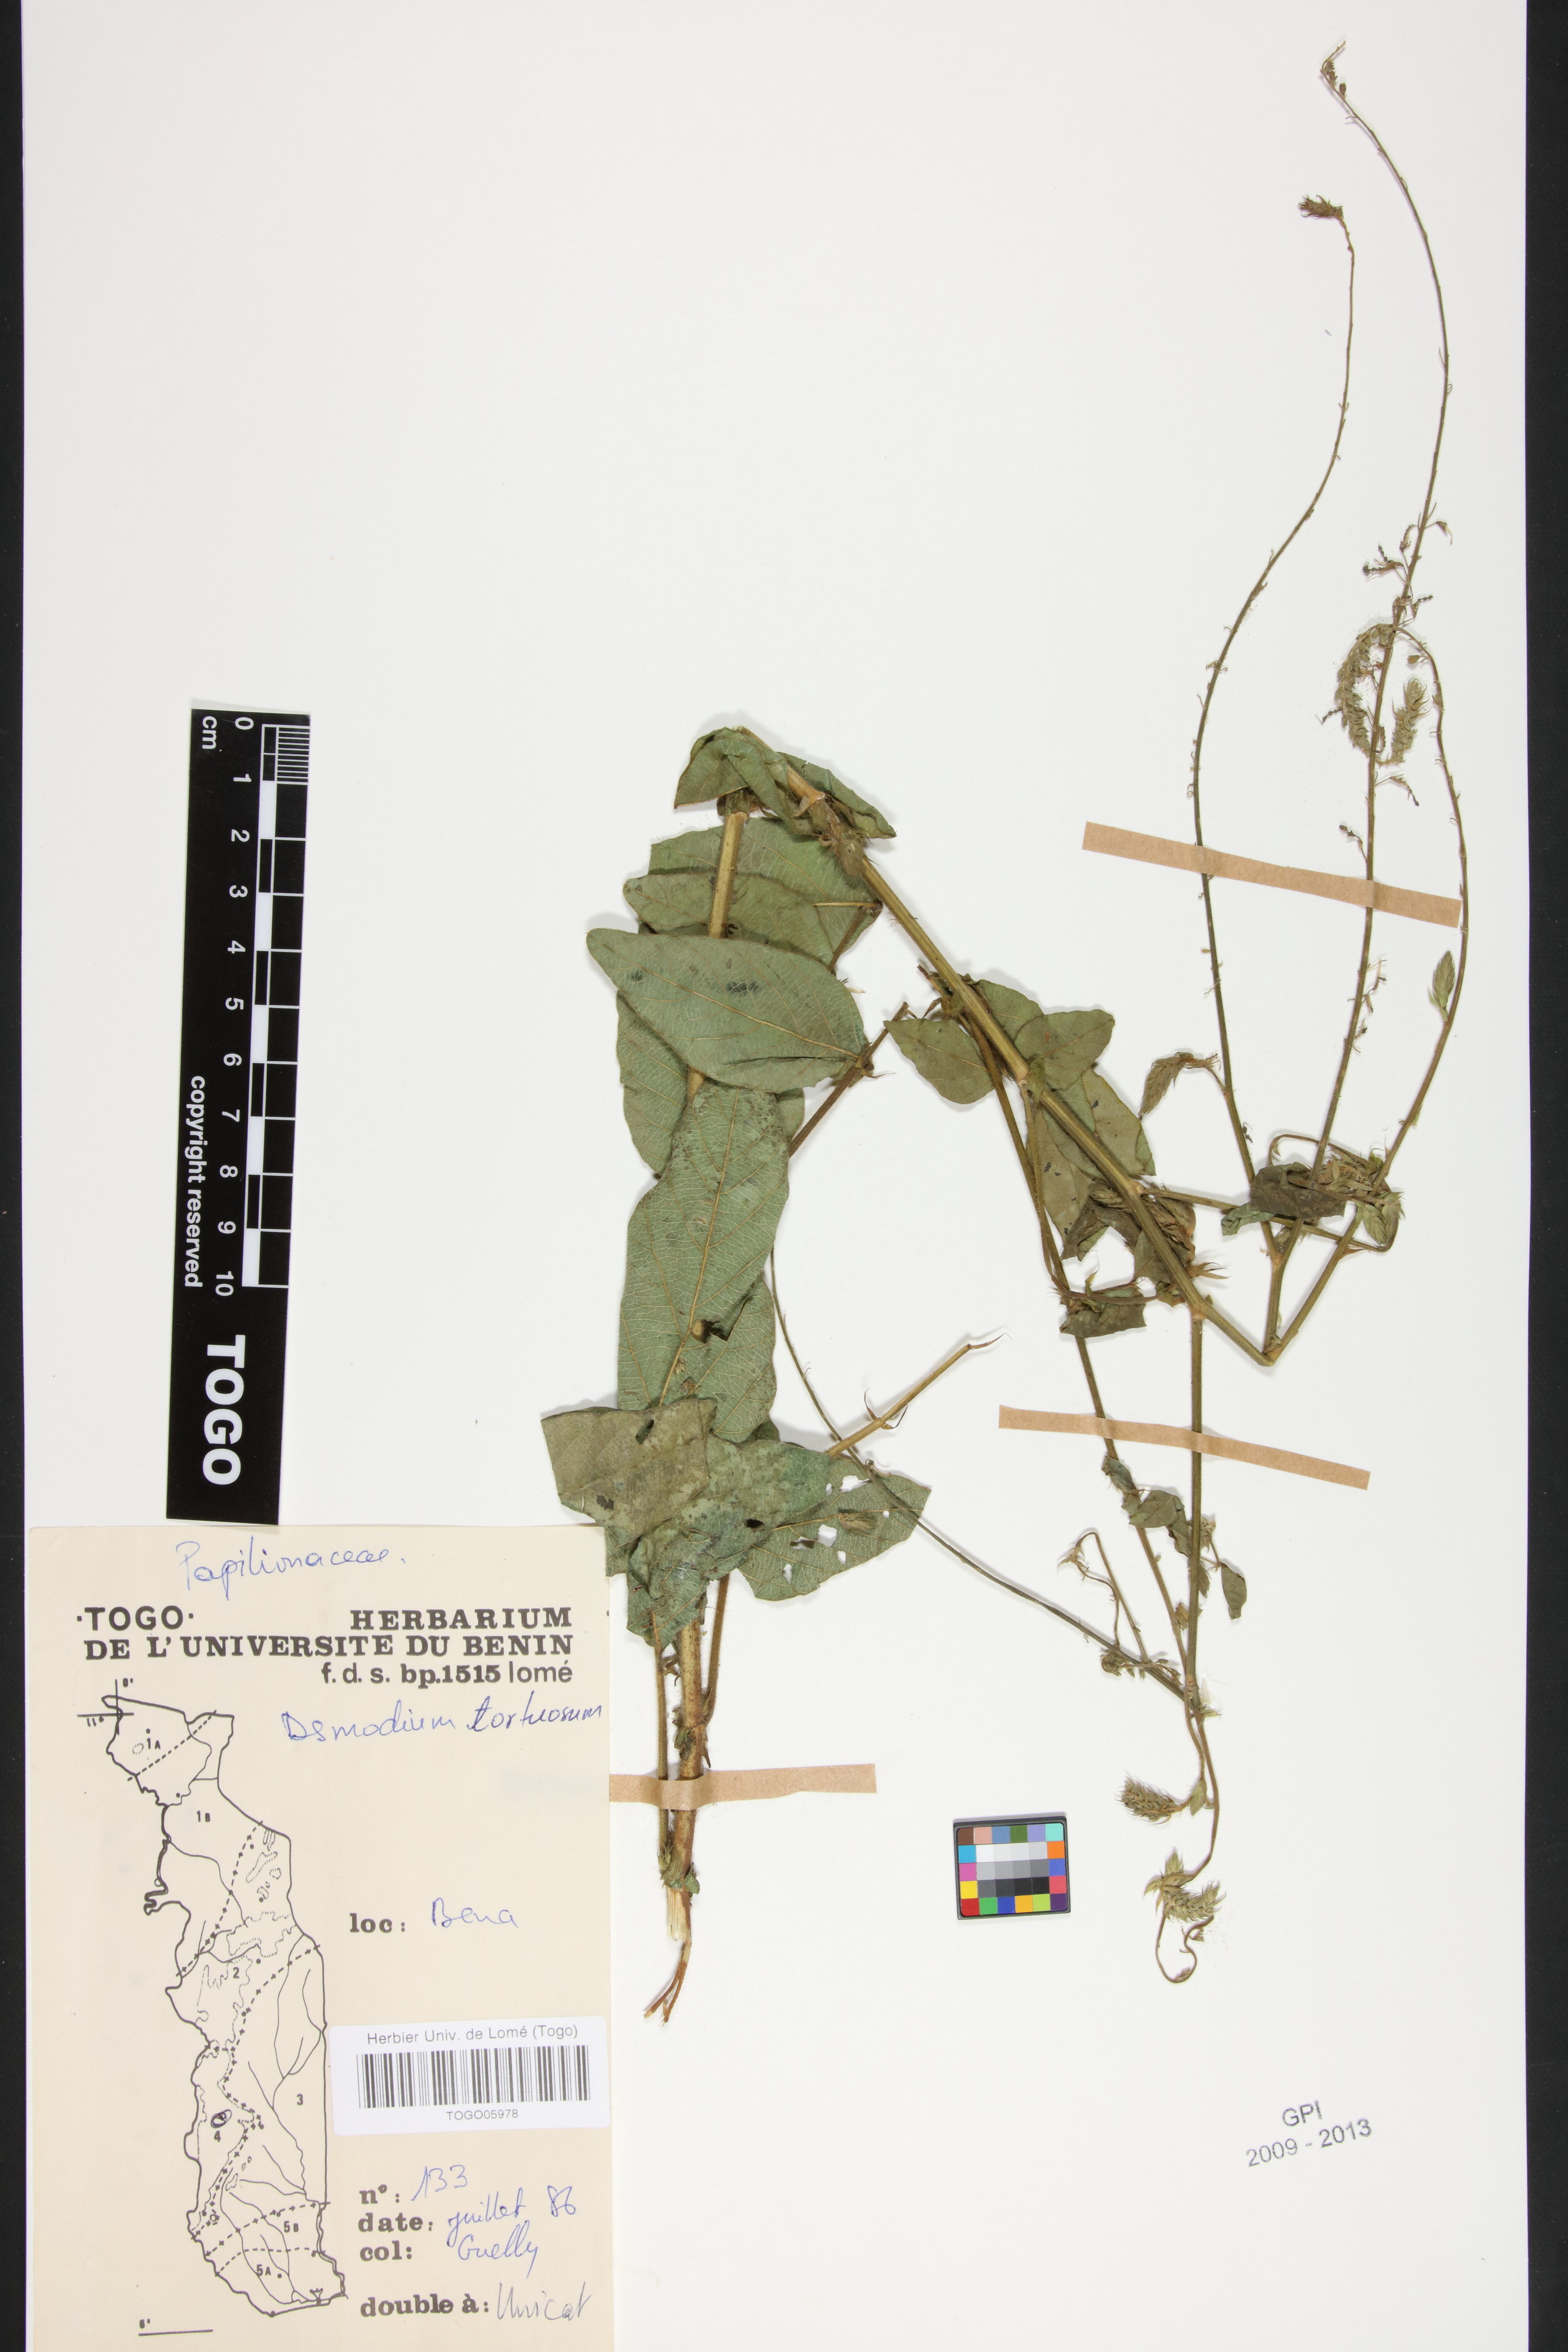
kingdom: Plantae
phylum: Tracheophyta
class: Magnoliopsida
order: Fabales
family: Fabaceae
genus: Desmodium
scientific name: Desmodium tortuosum
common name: Dixie ticktrefoil
